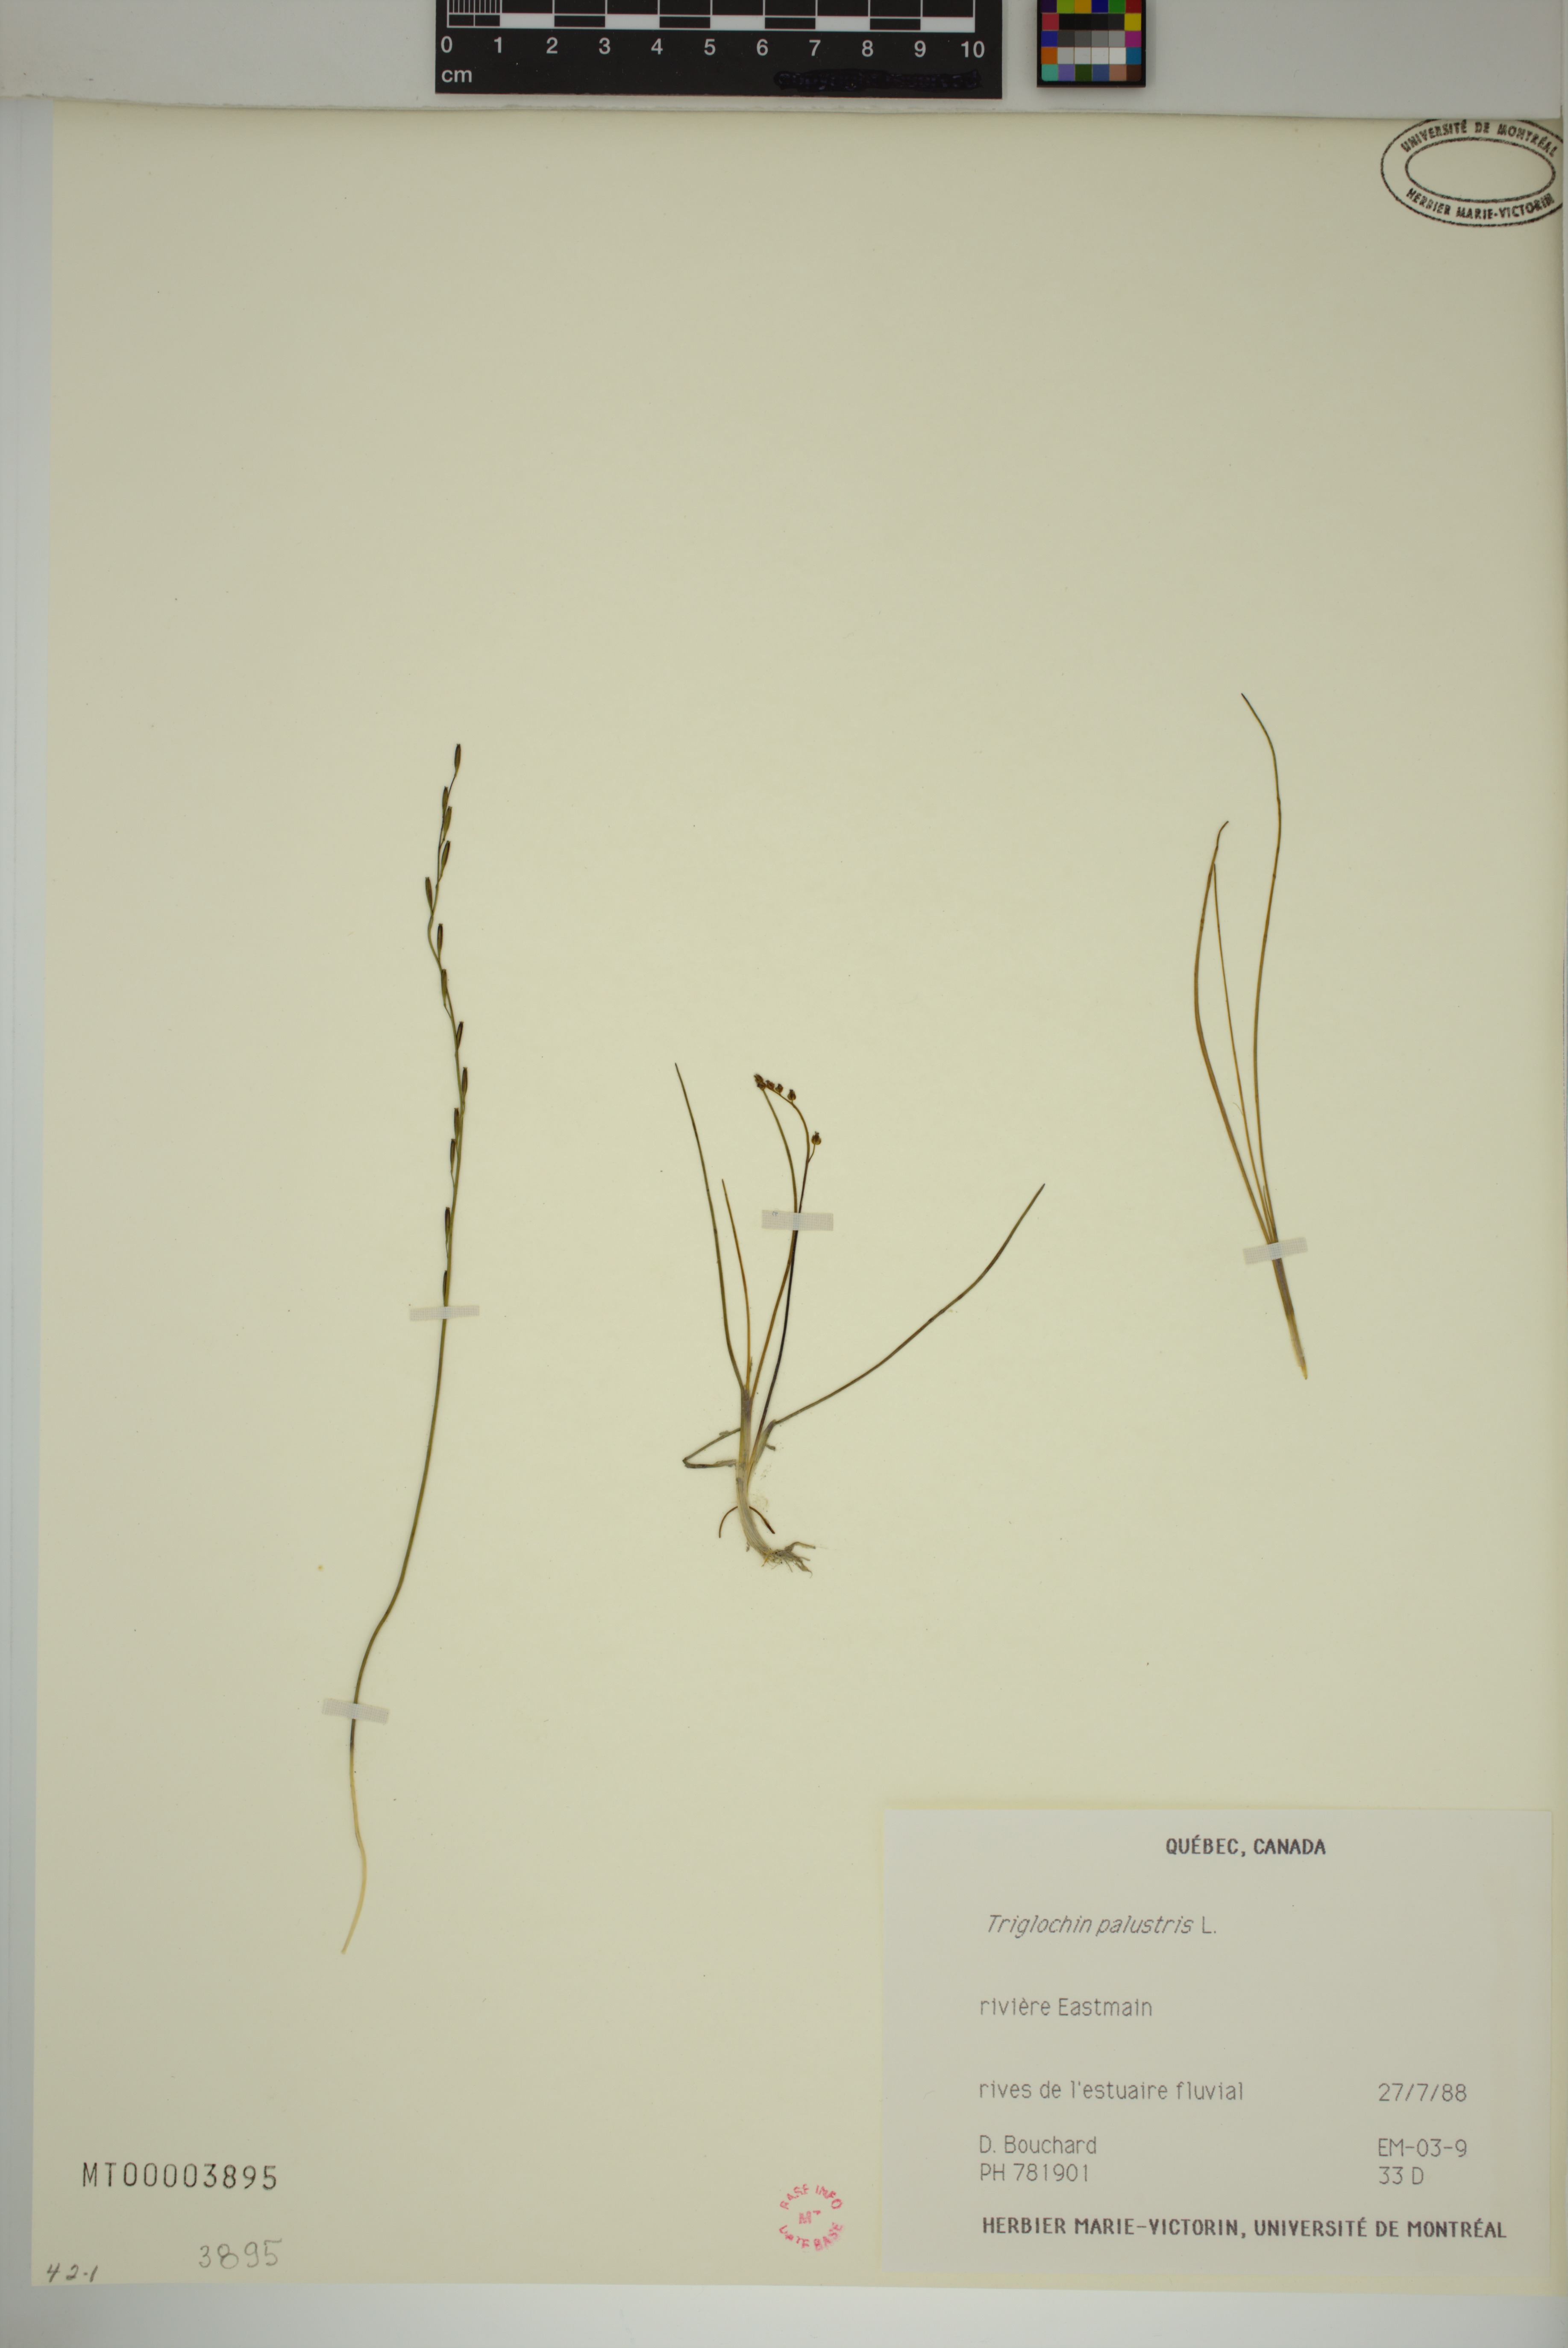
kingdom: Plantae
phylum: Tracheophyta
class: Liliopsida
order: Alismatales
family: Juncaginaceae
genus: Triglochin
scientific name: Triglochin palustris
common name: Marsh arrowgrass
